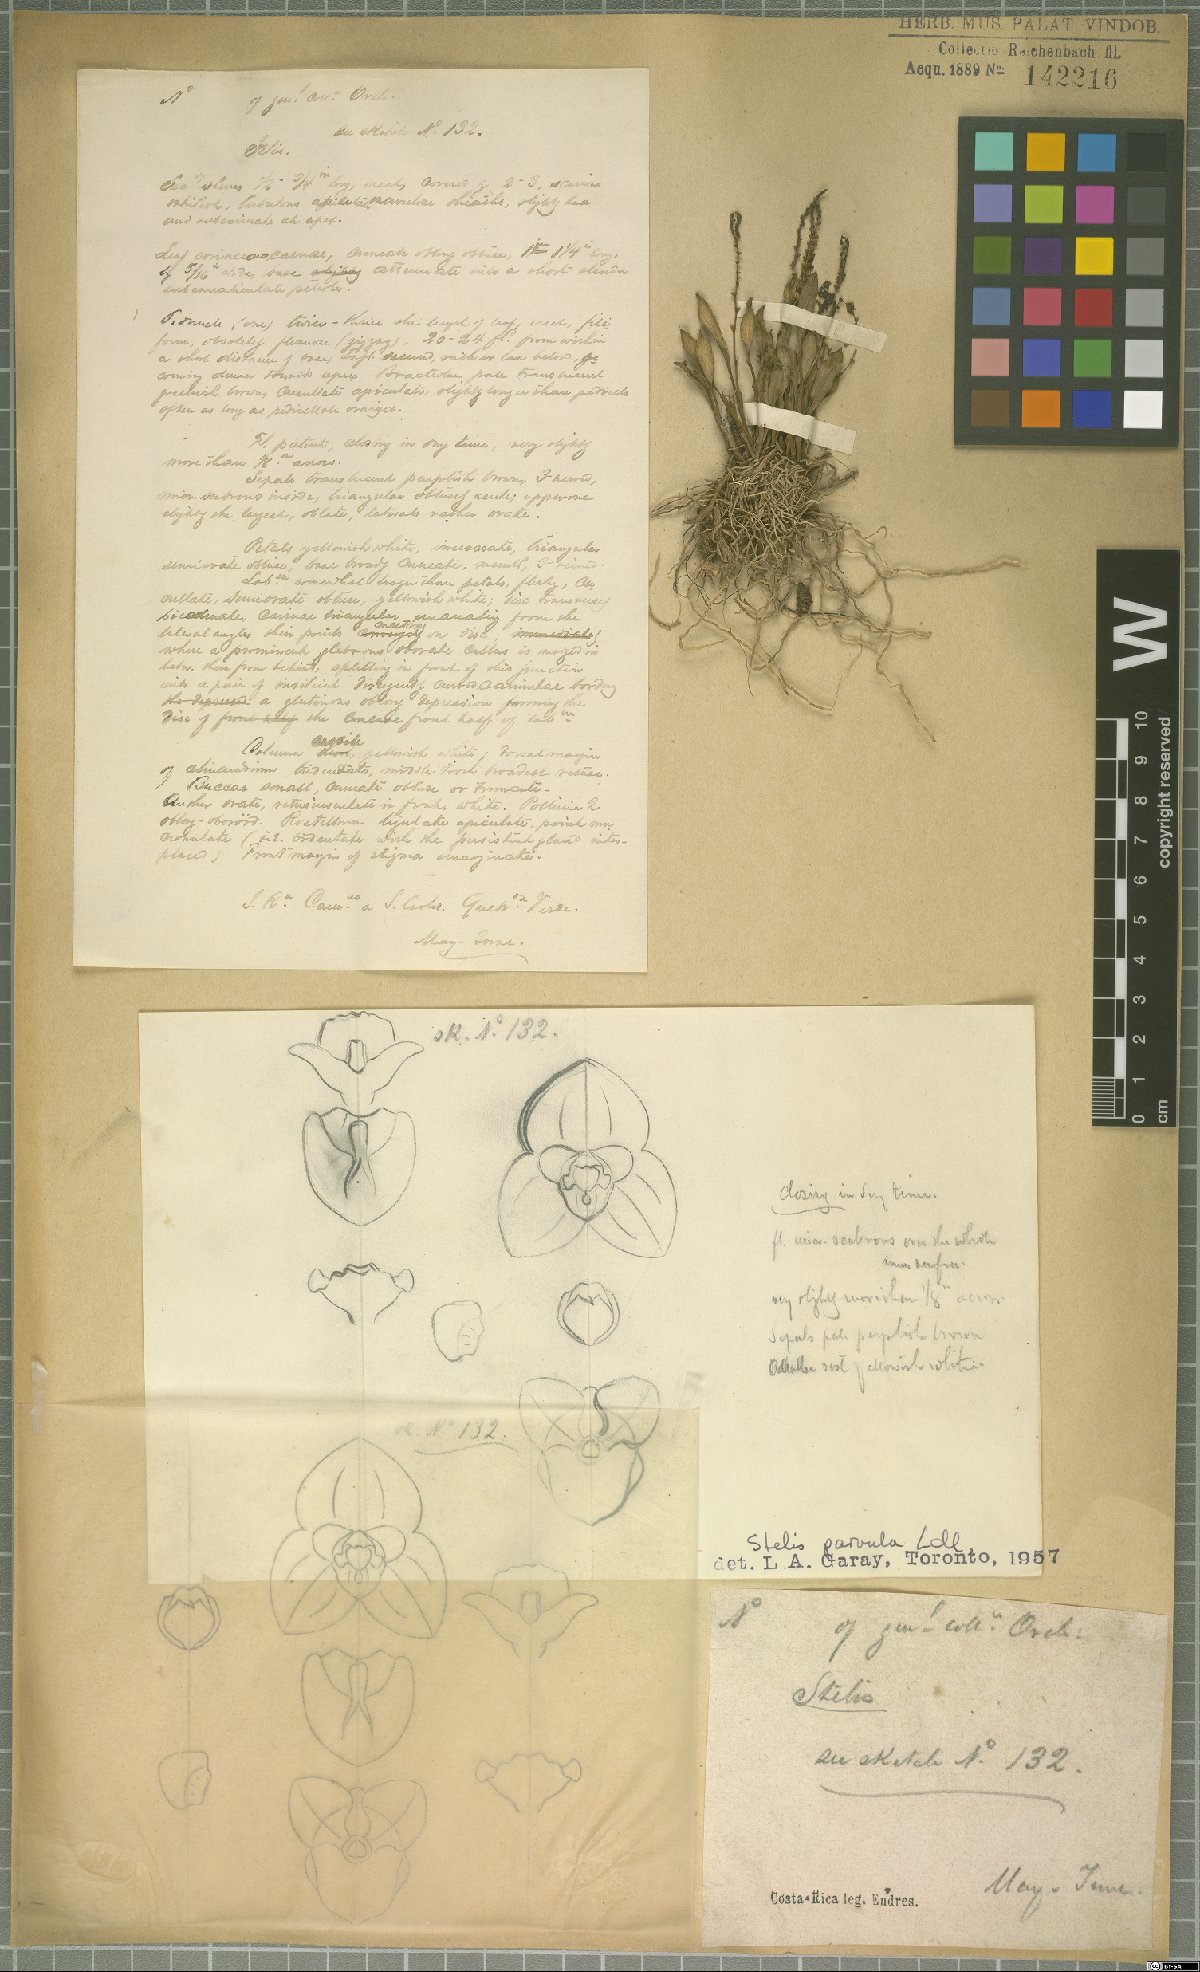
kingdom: Plantae
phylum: Tracheophyta
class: Liliopsida
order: Asparagales
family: Orchidaceae
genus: Stelis
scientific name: Stelis parvula
